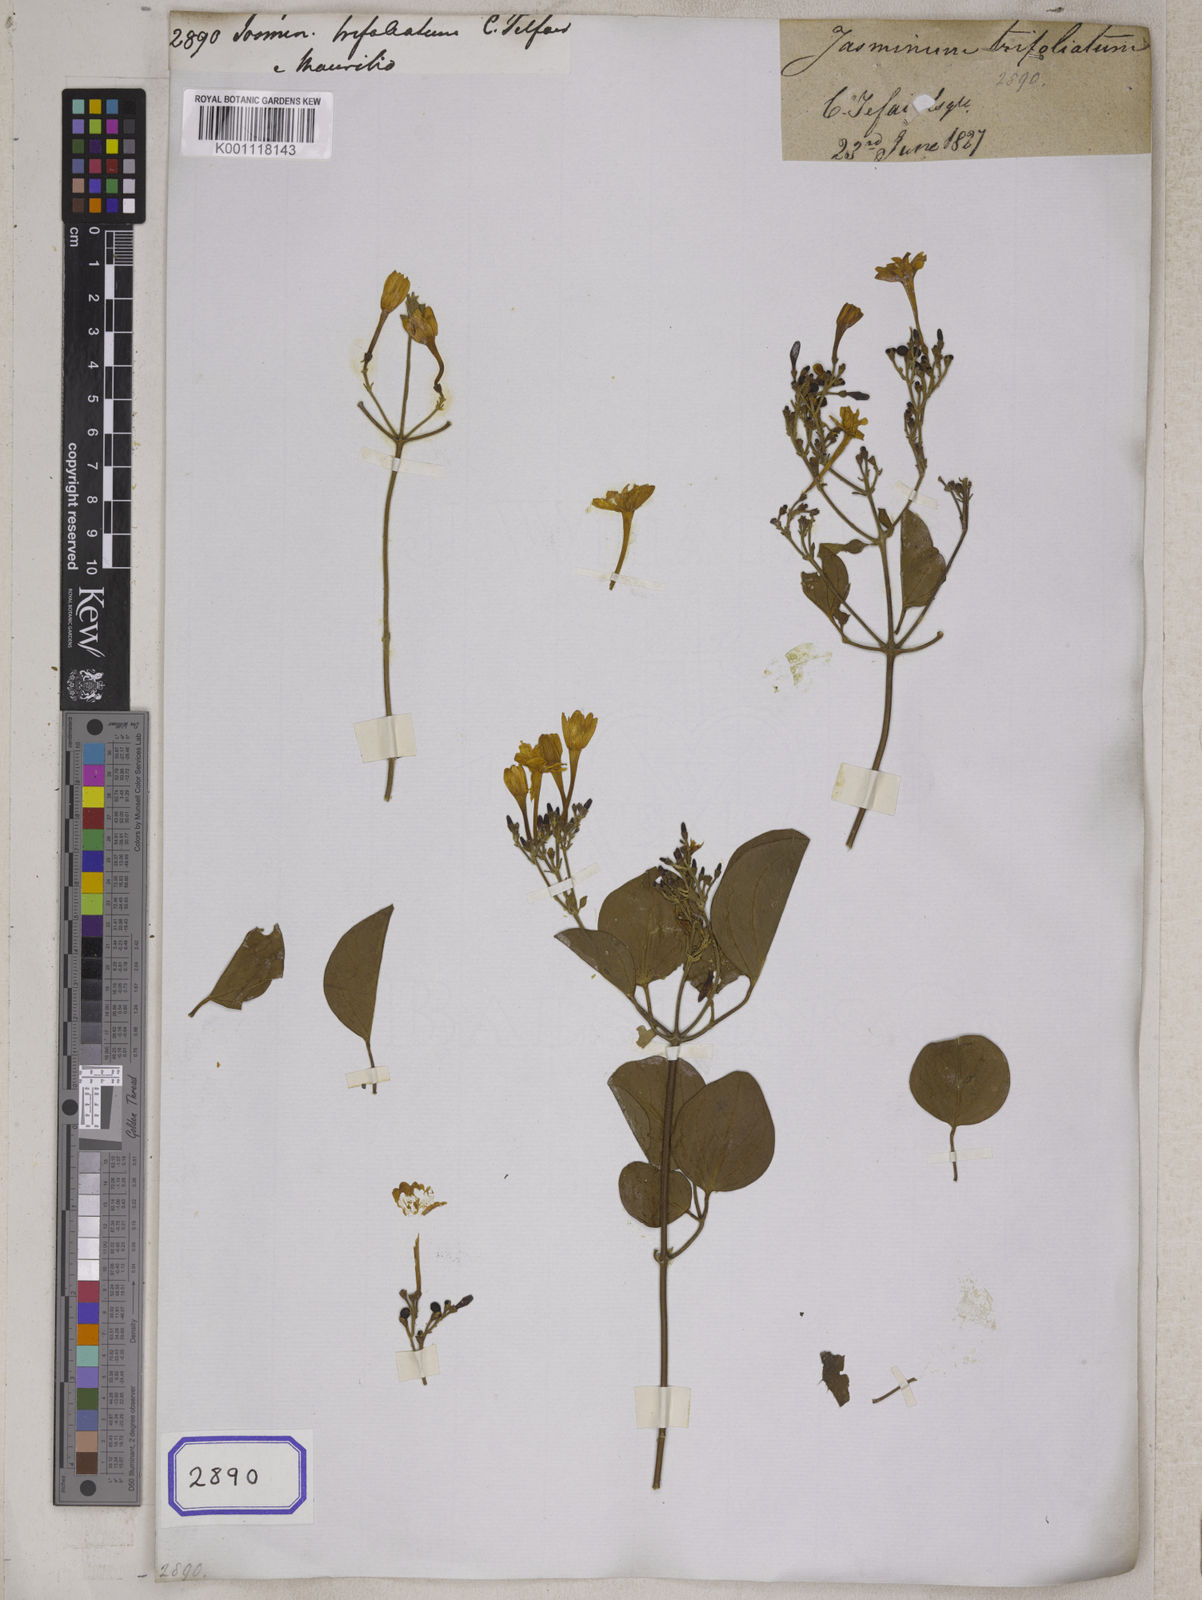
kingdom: Plantae
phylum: Tracheophyta
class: Magnoliopsida
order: Lamiales
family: Oleaceae
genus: Jasminum
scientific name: Jasminum
